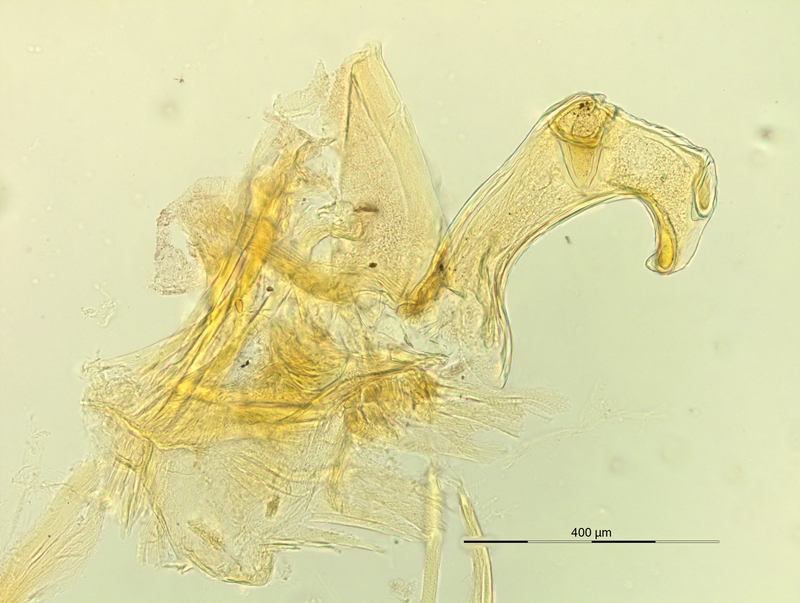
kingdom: Animalia
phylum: Arthropoda
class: Diplopoda
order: Chordeumatida
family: Craspedosomatidae
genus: Pyrgocyphosoma
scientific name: Pyrgocyphosoma longilamellatum
